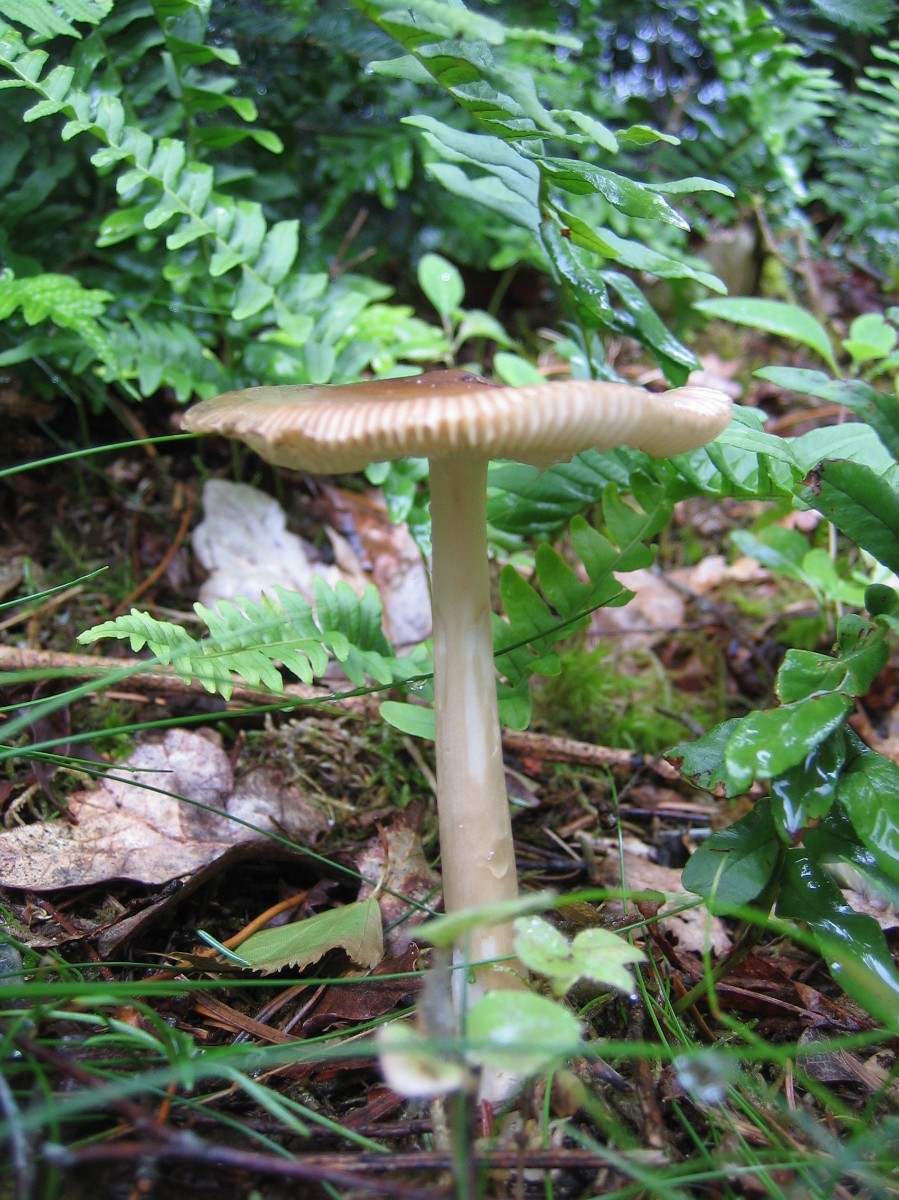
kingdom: Fungi
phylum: Basidiomycota
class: Agaricomycetes
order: Agaricales
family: Amanitaceae
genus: Amanita
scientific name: Amanita fulva
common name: brun kam-fluesvamp
